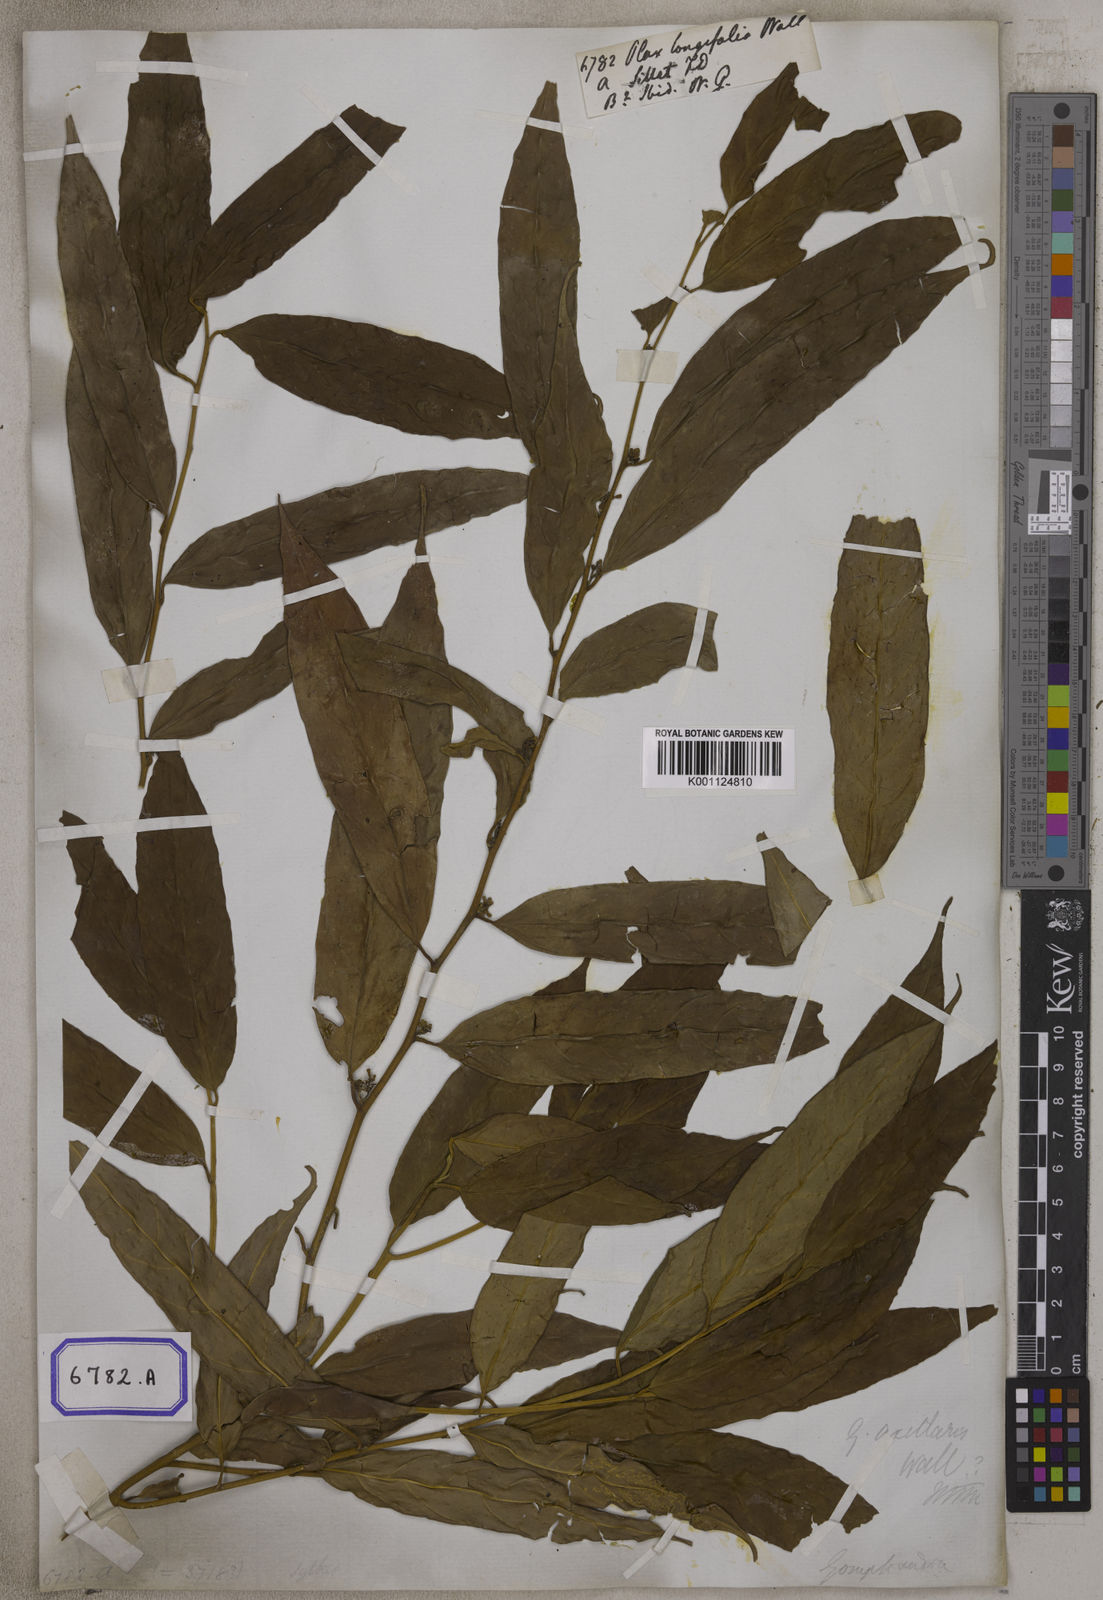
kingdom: Plantae
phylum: Tracheophyta
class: Magnoliopsida
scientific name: Magnoliopsida
